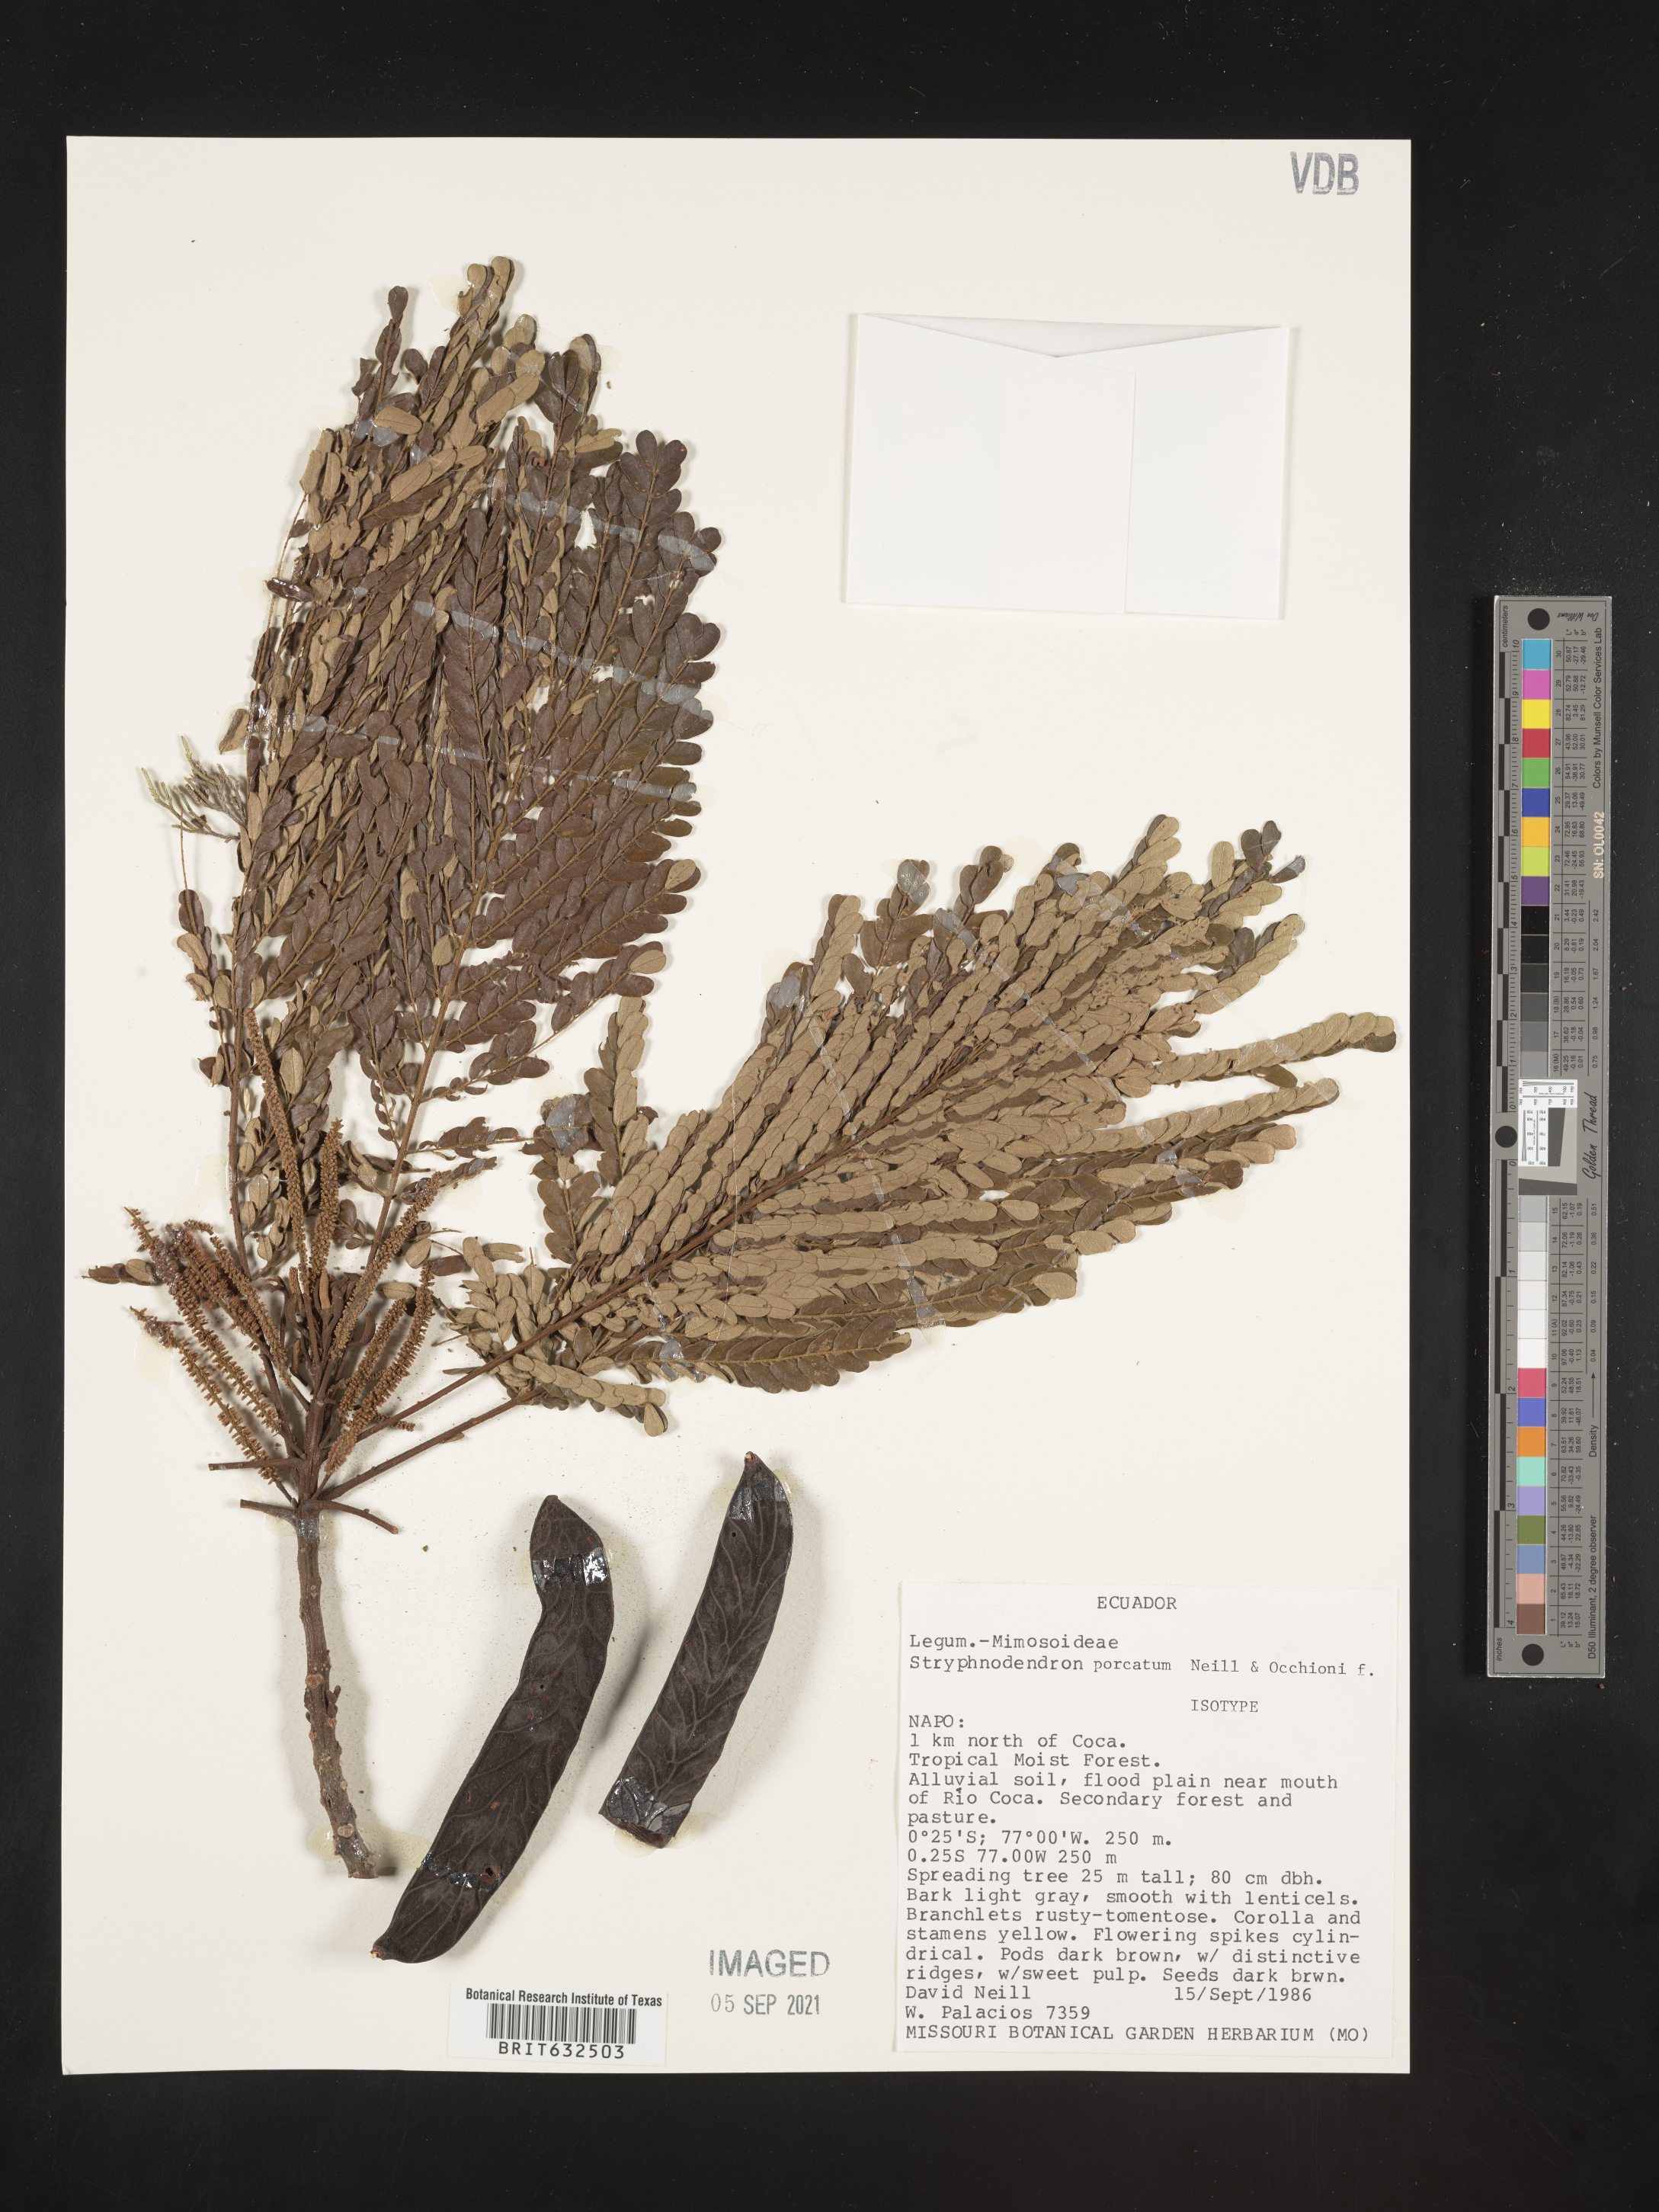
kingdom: Plantae
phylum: Tracheophyta
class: Magnoliopsida
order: Fabales
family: Fabaceae
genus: Stryphnodendron
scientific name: Stryphnodendron
